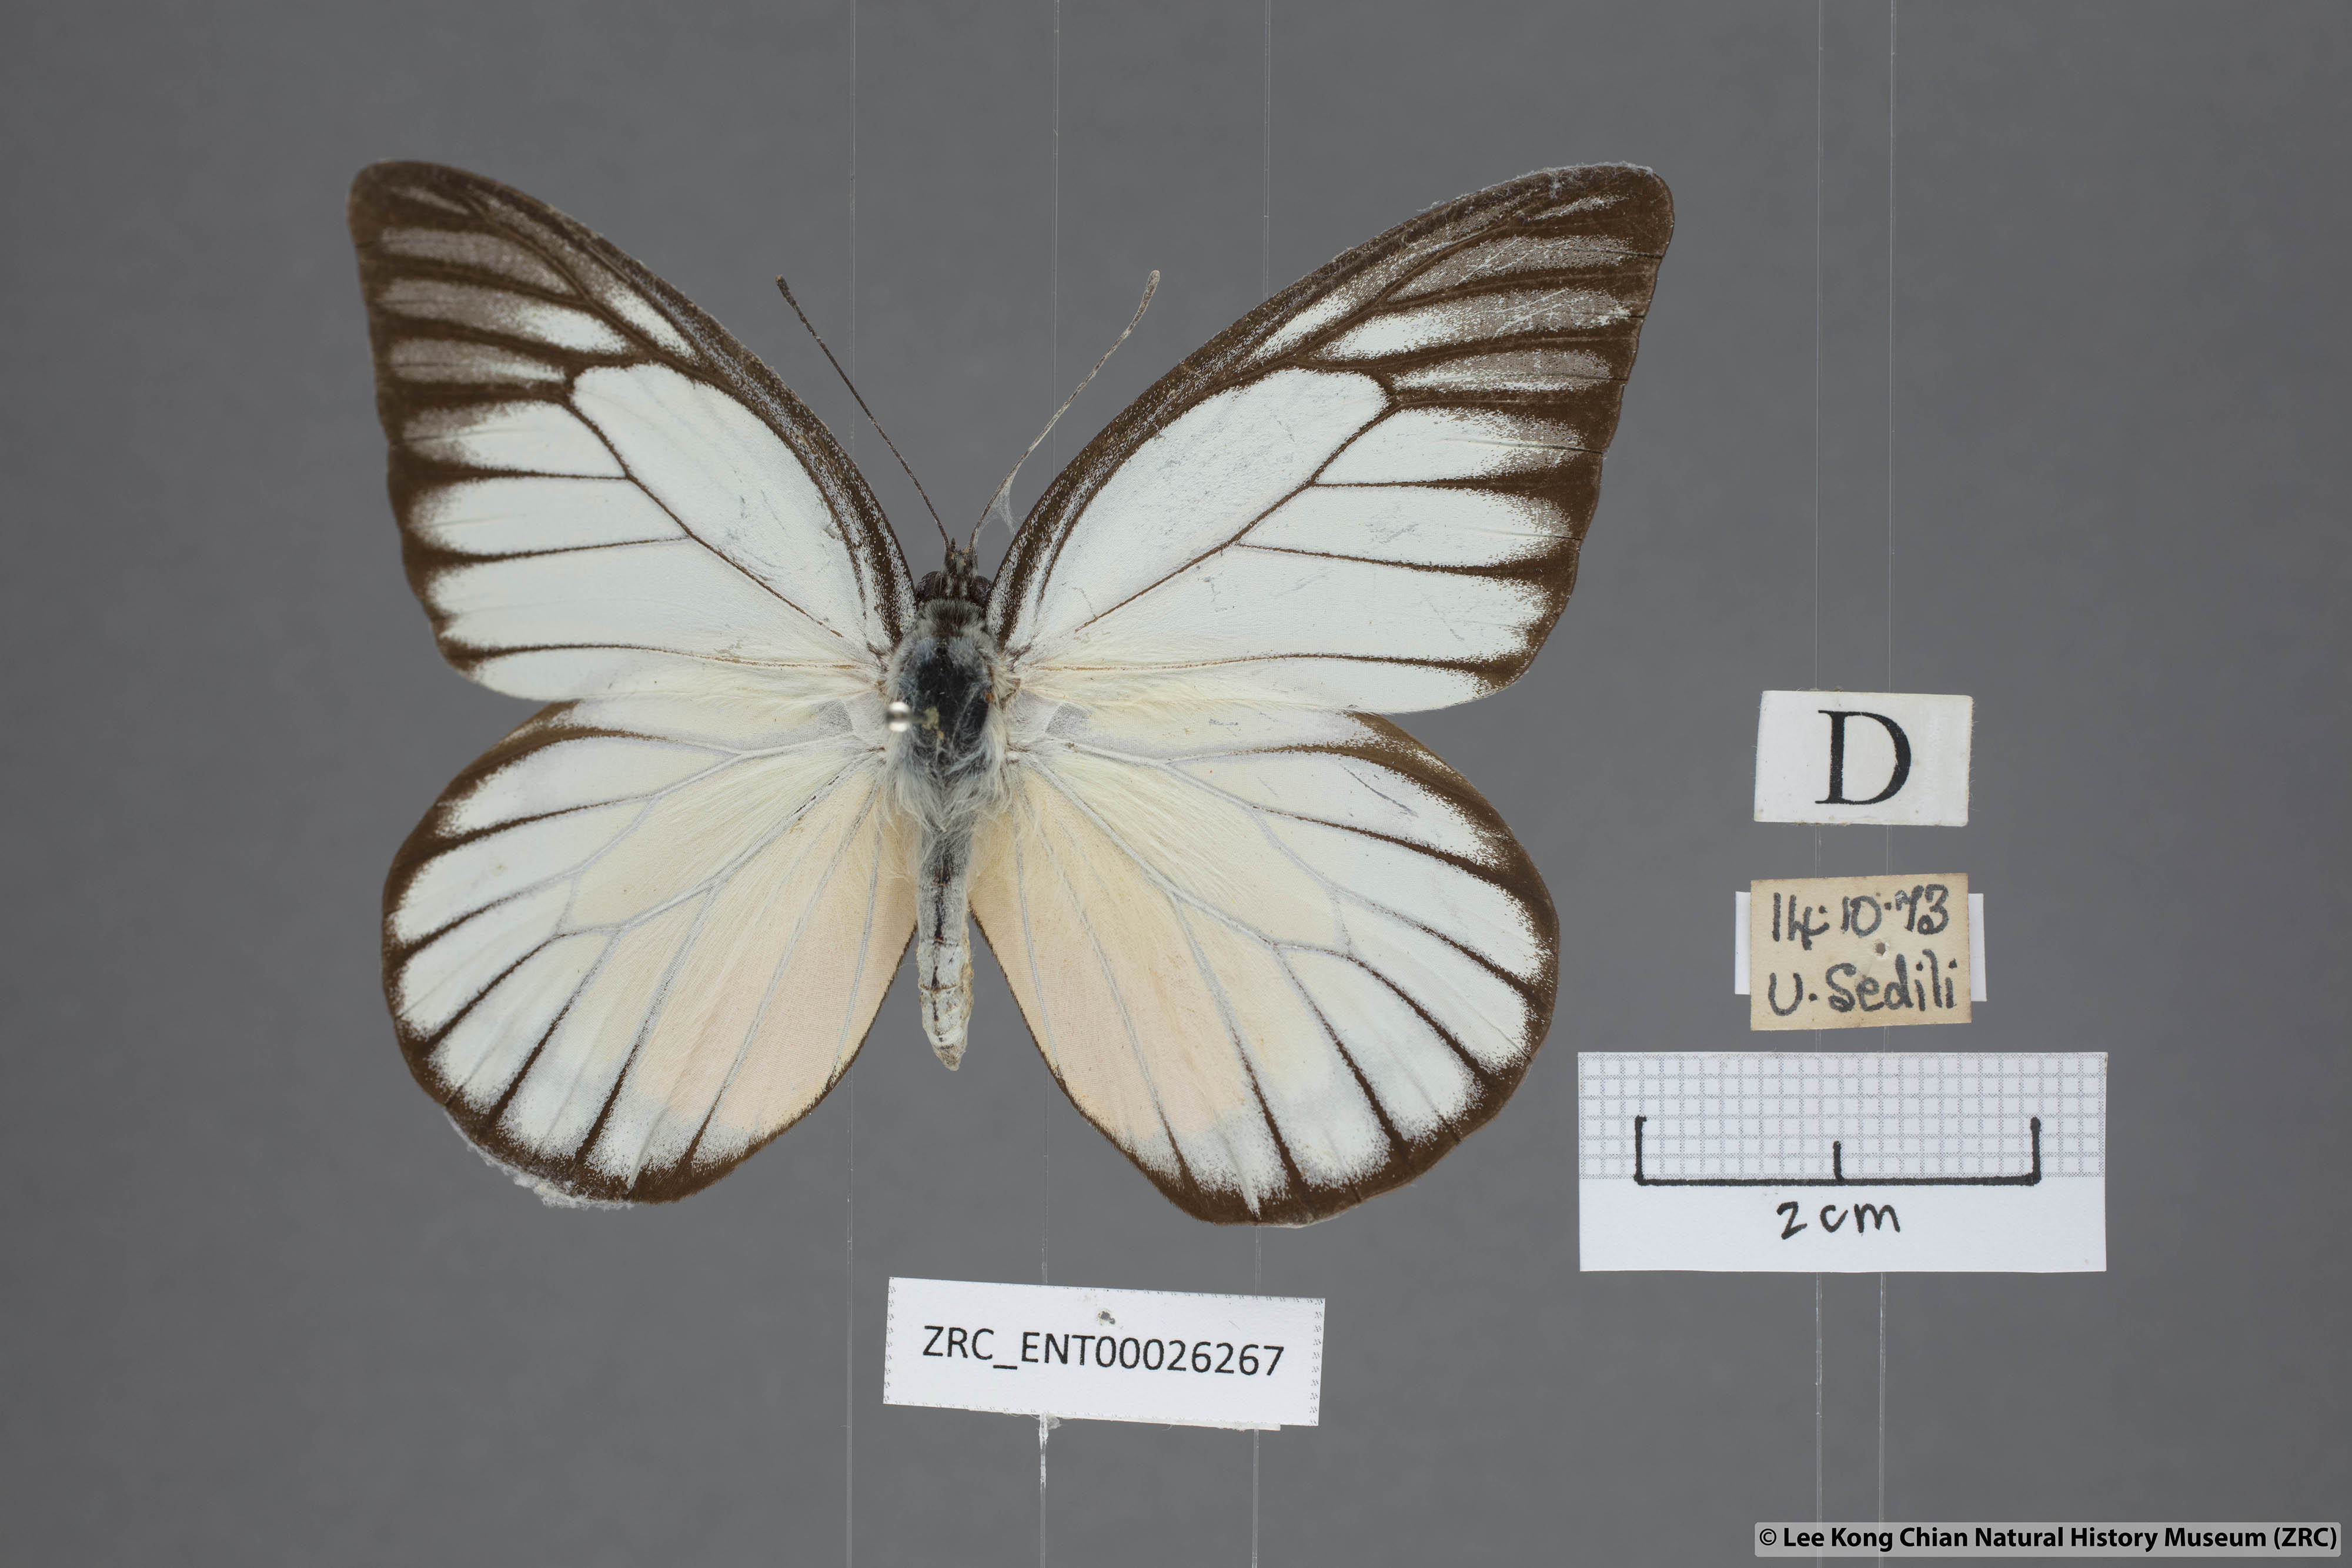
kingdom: Animalia
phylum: Arthropoda
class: Insecta
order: Lepidoptera
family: Pieridae
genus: Prioneris
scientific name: Prioneris philonome
